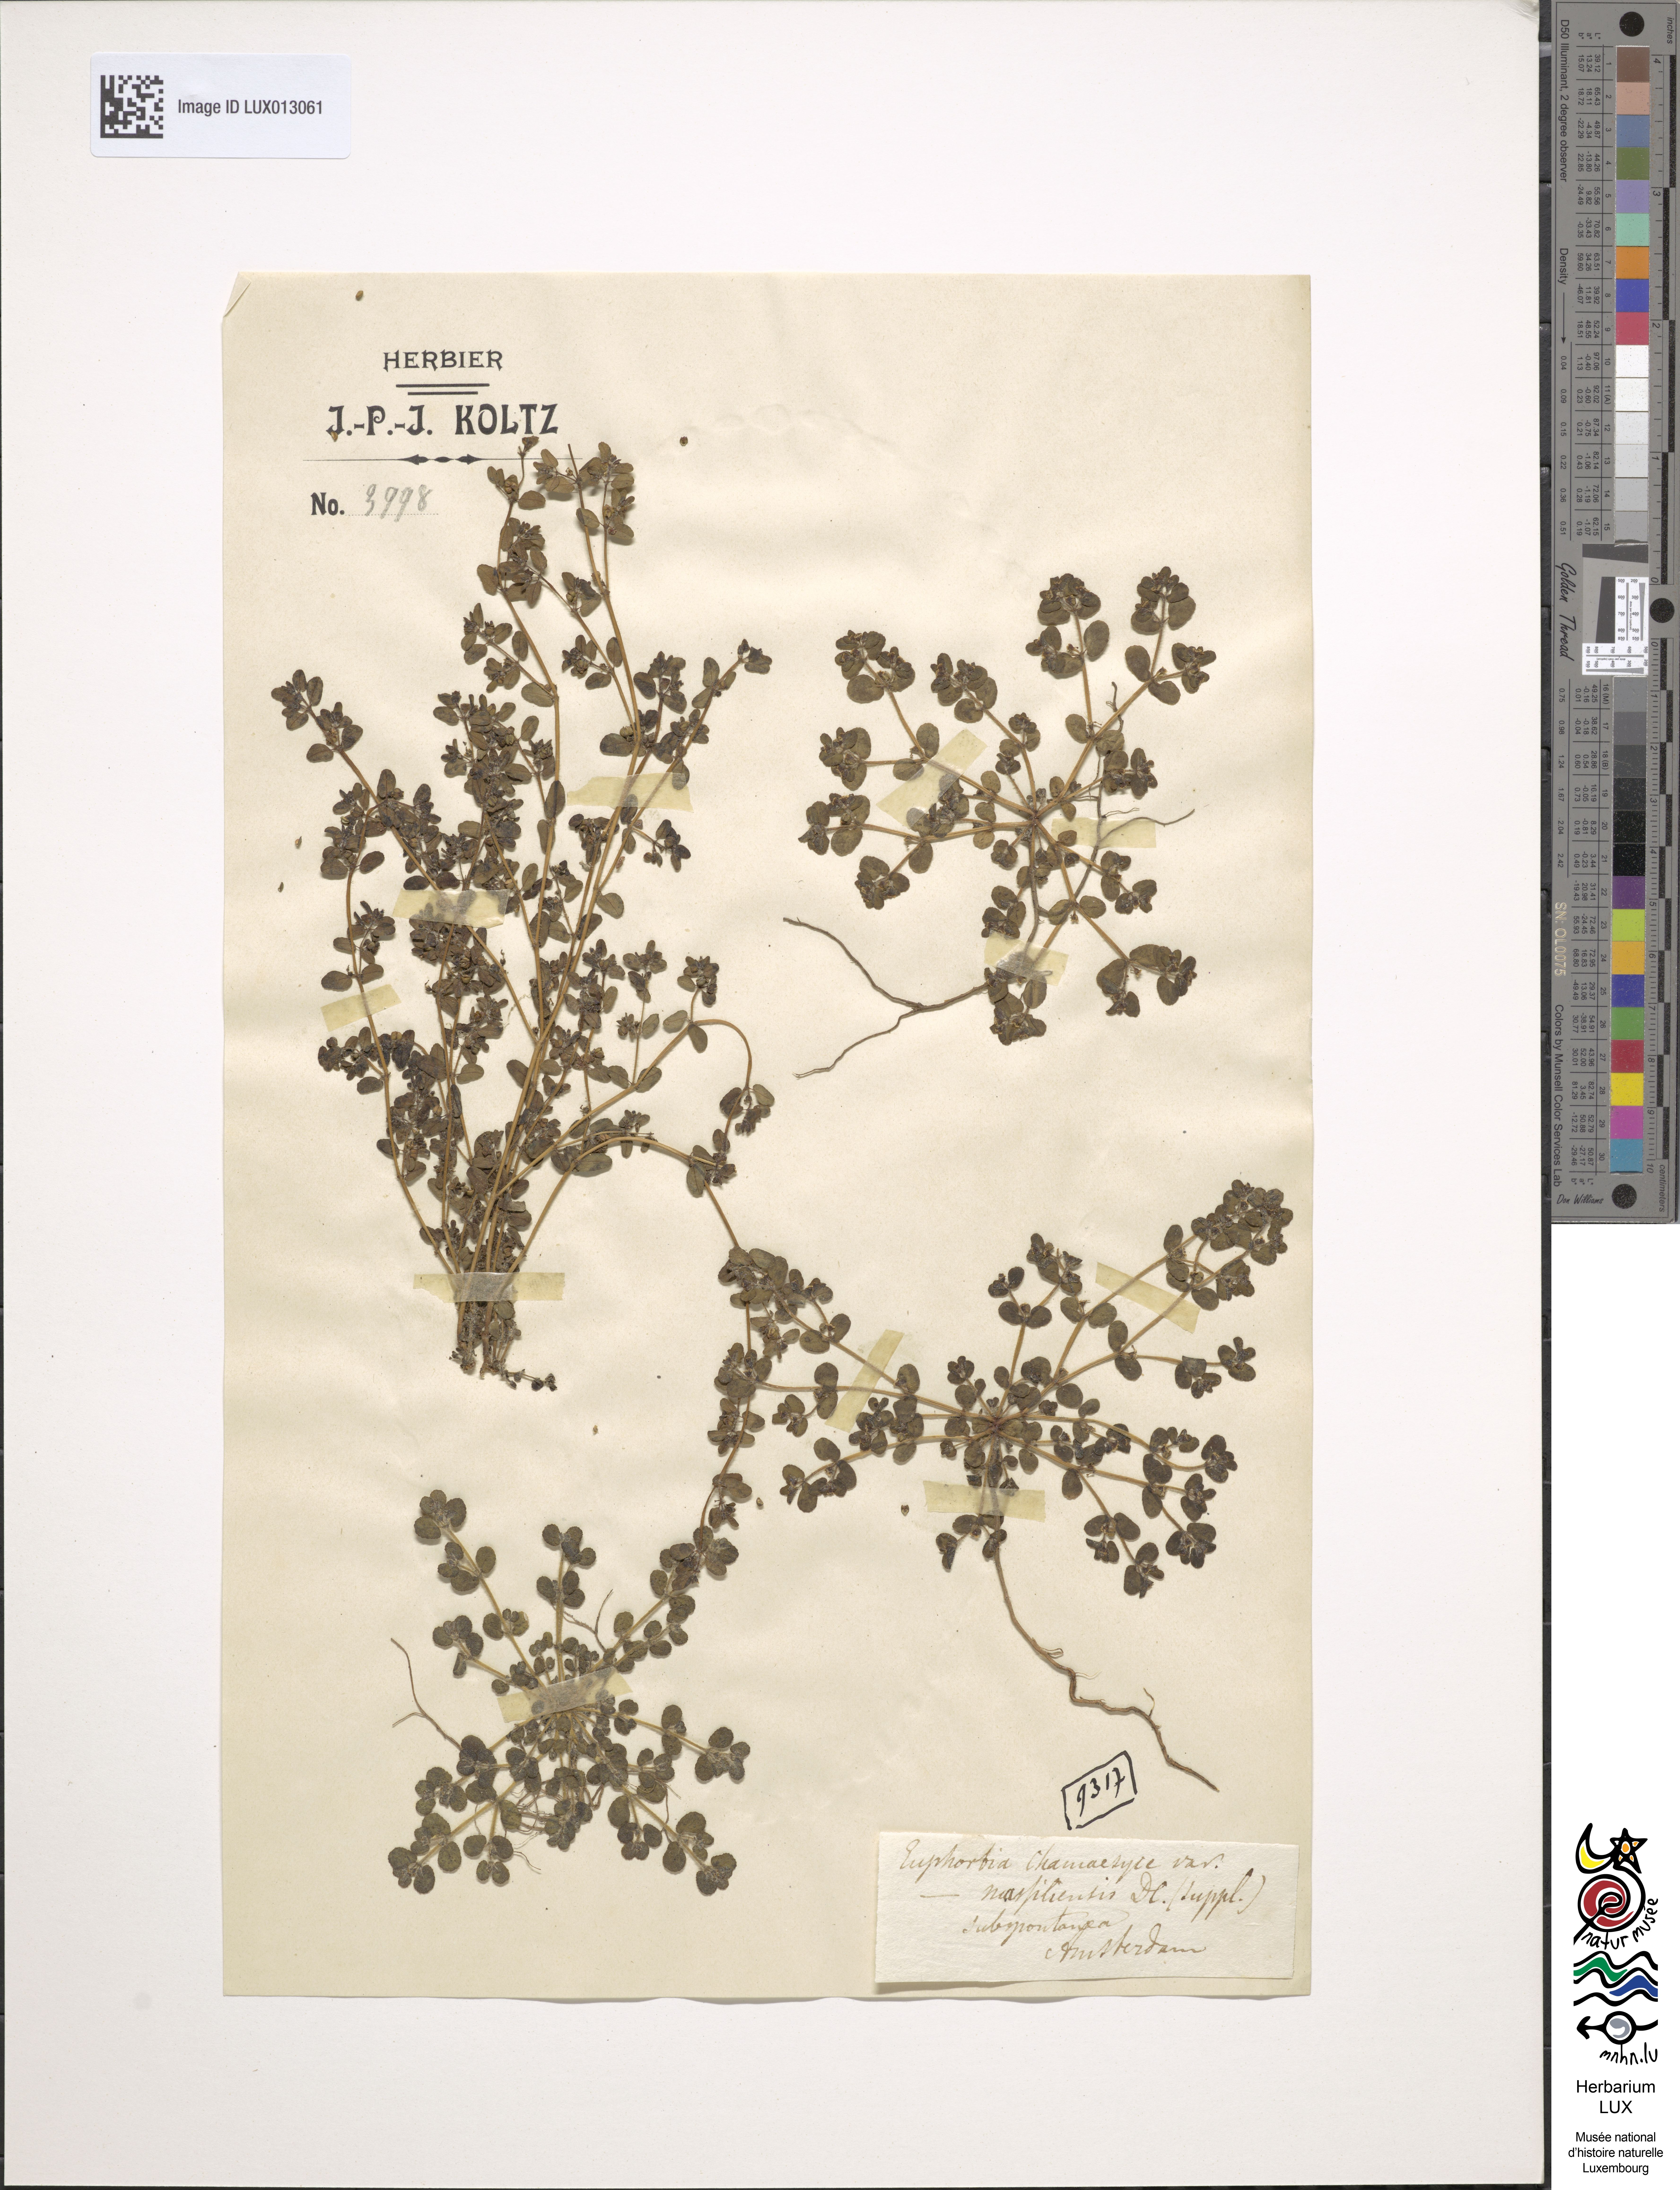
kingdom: Plantae
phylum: Tracheophyta
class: Magnoliopsida
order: Malpighiales
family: Euphorbiaceae
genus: Euphorbia
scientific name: Euphorbia chamaesyce
